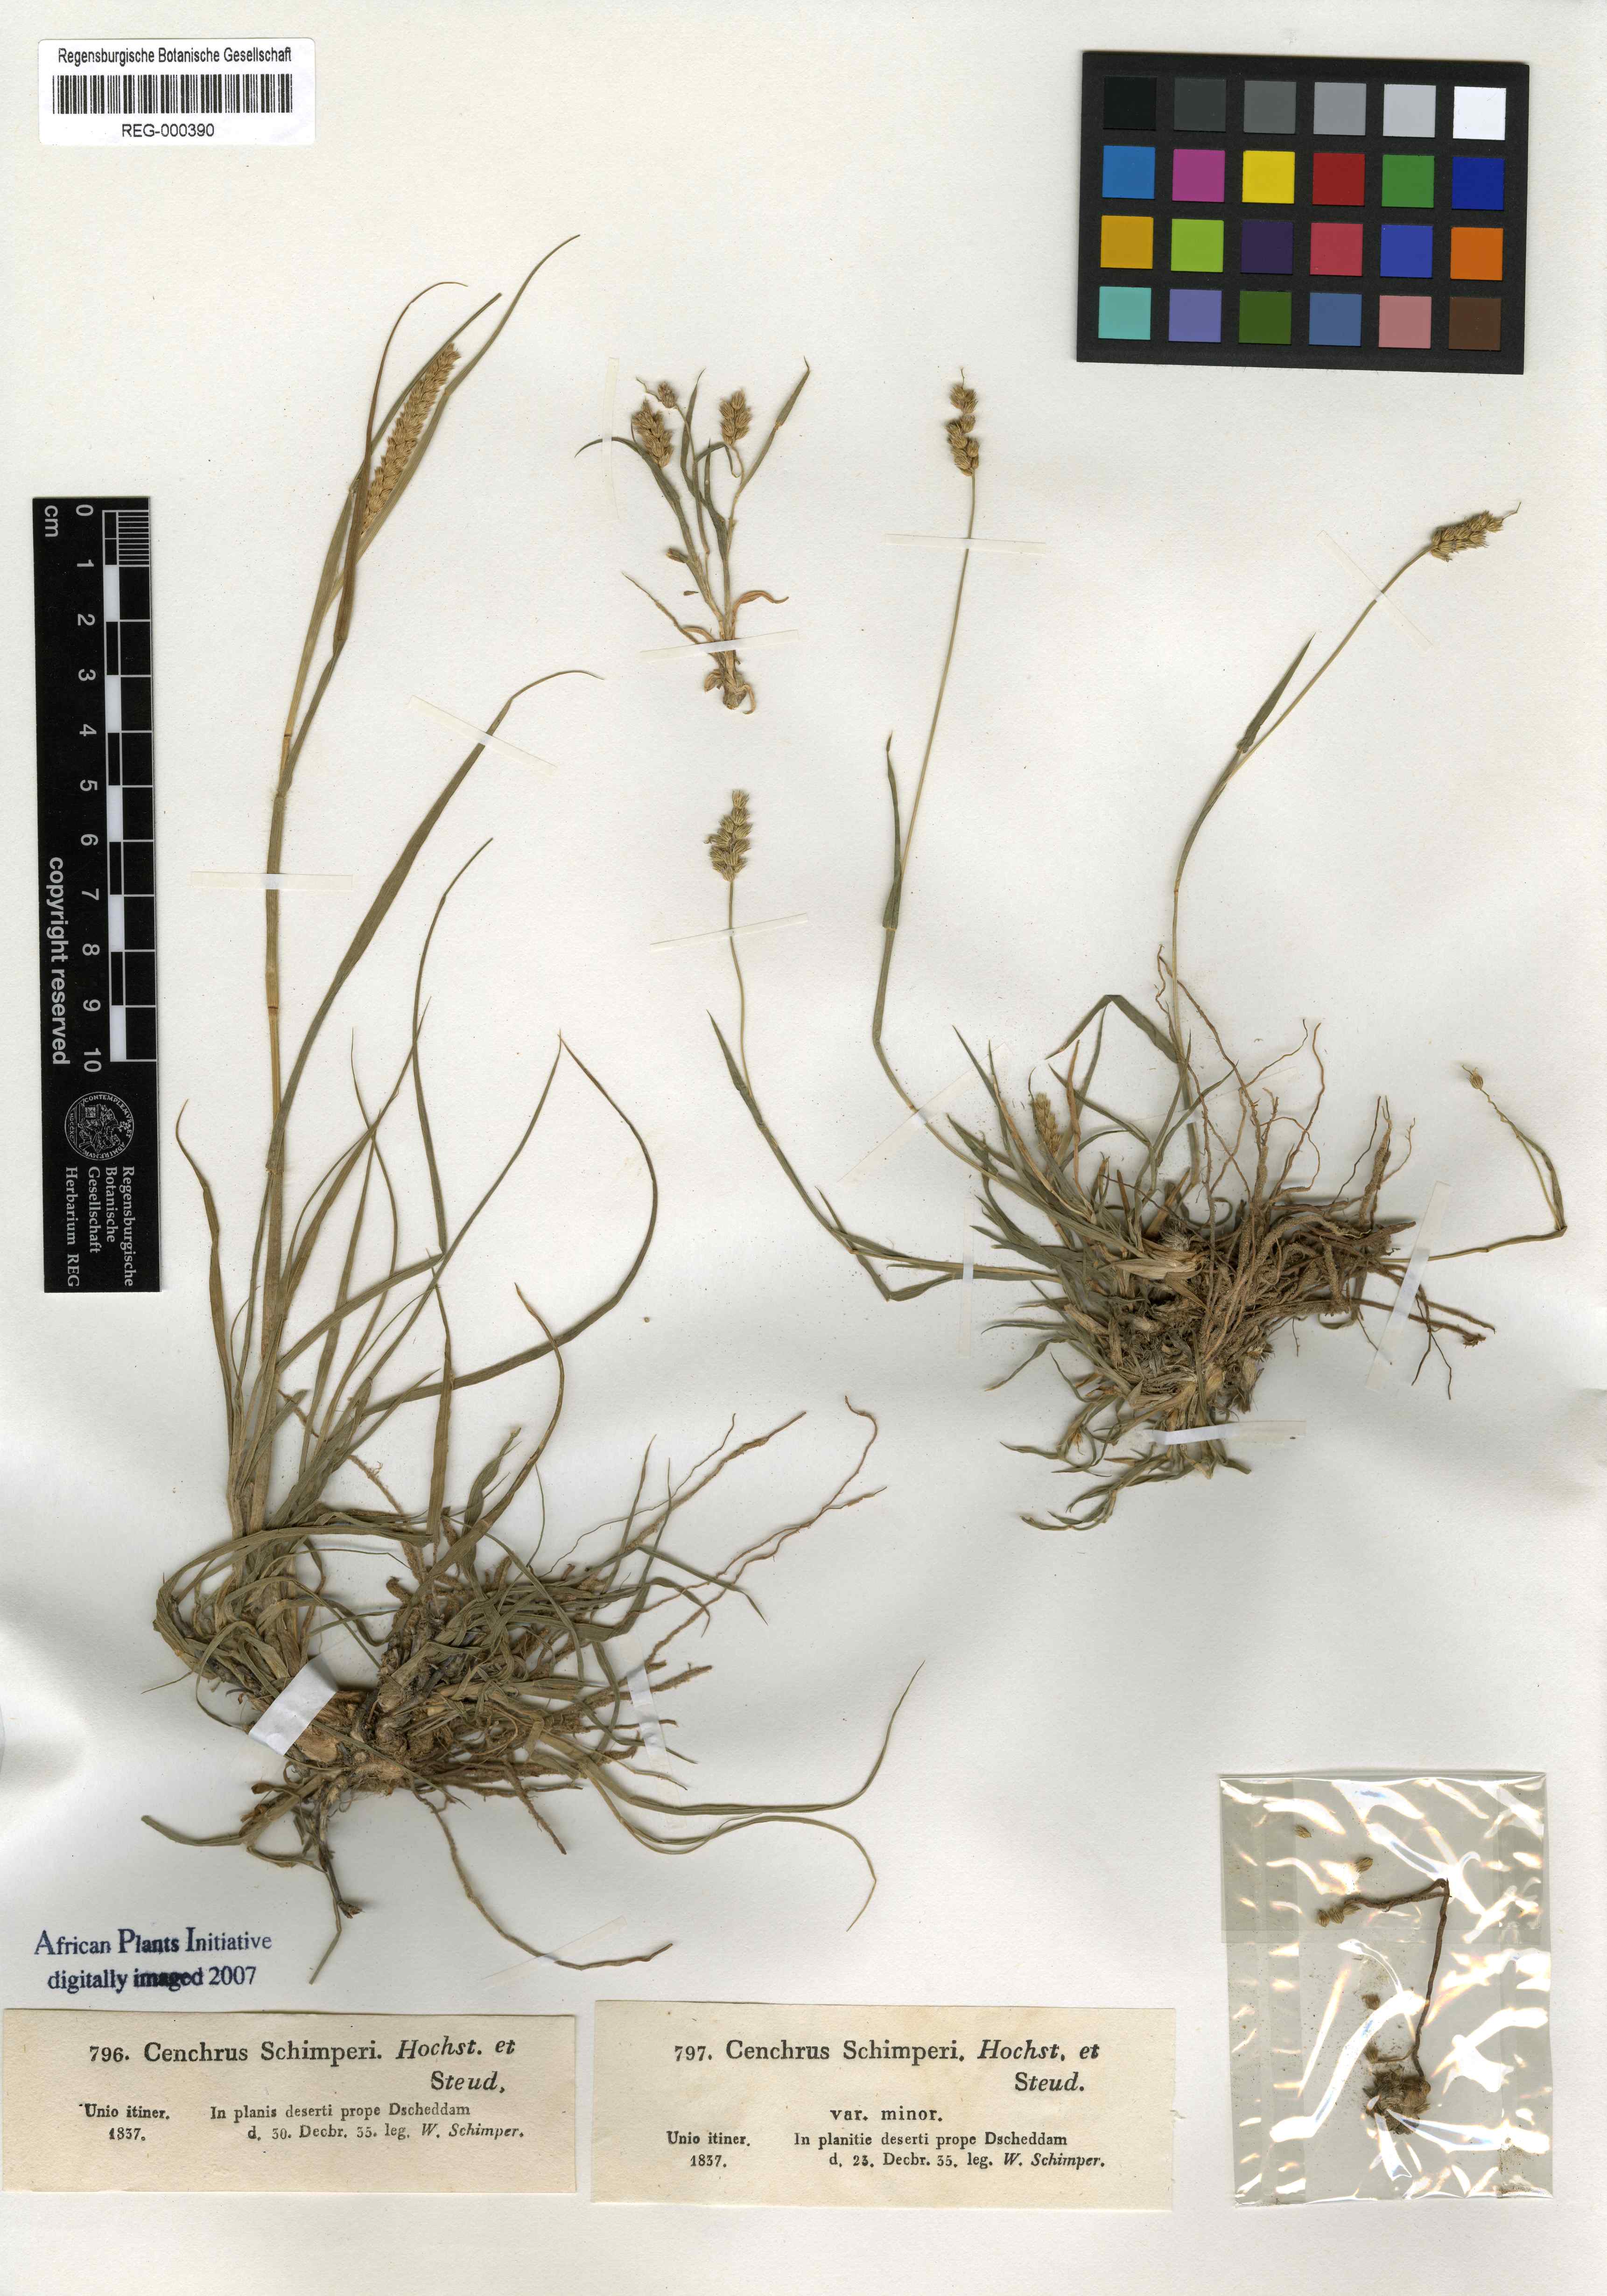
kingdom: Plantae
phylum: Tracheophyta
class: Liliopsida
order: Poales
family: Poaceae
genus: Cenchrus
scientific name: Cenchrus setigerus
